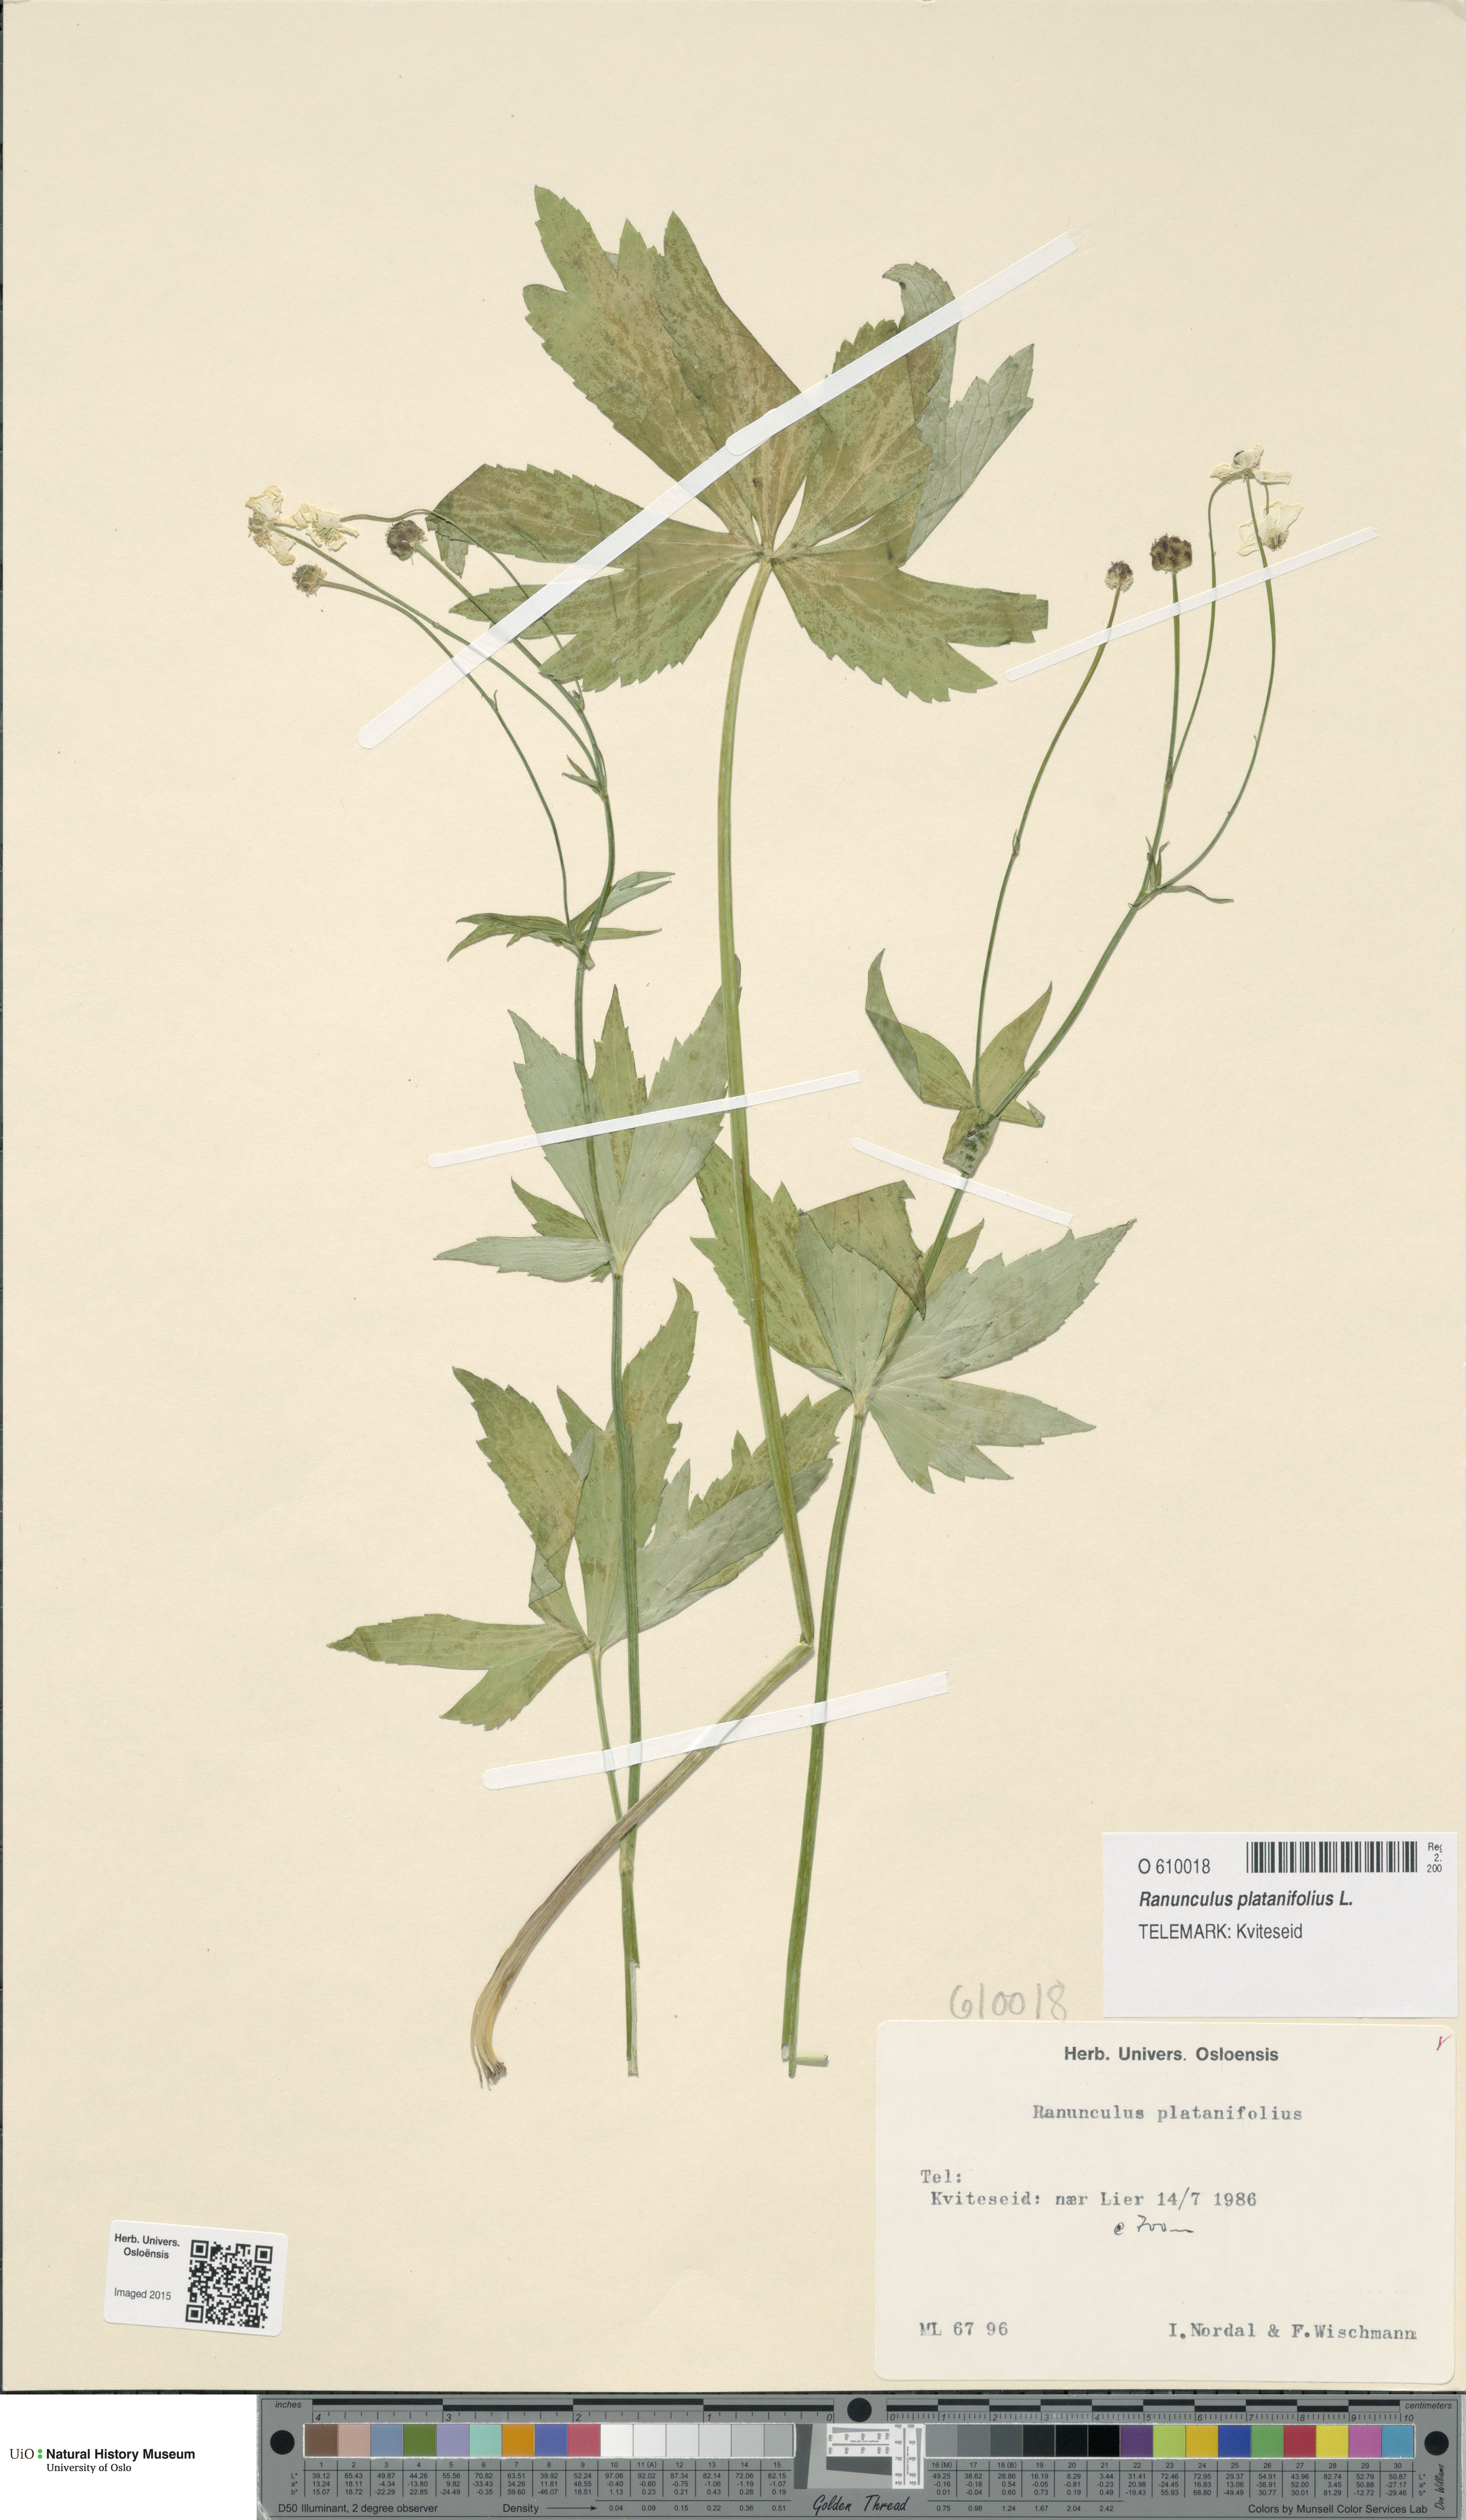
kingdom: Plantae
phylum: Tracheophyta
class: Magnoliopsida
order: Ranunculales
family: Ranunculaceae
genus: Ranunculus
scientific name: Ranunculus platanifolius
